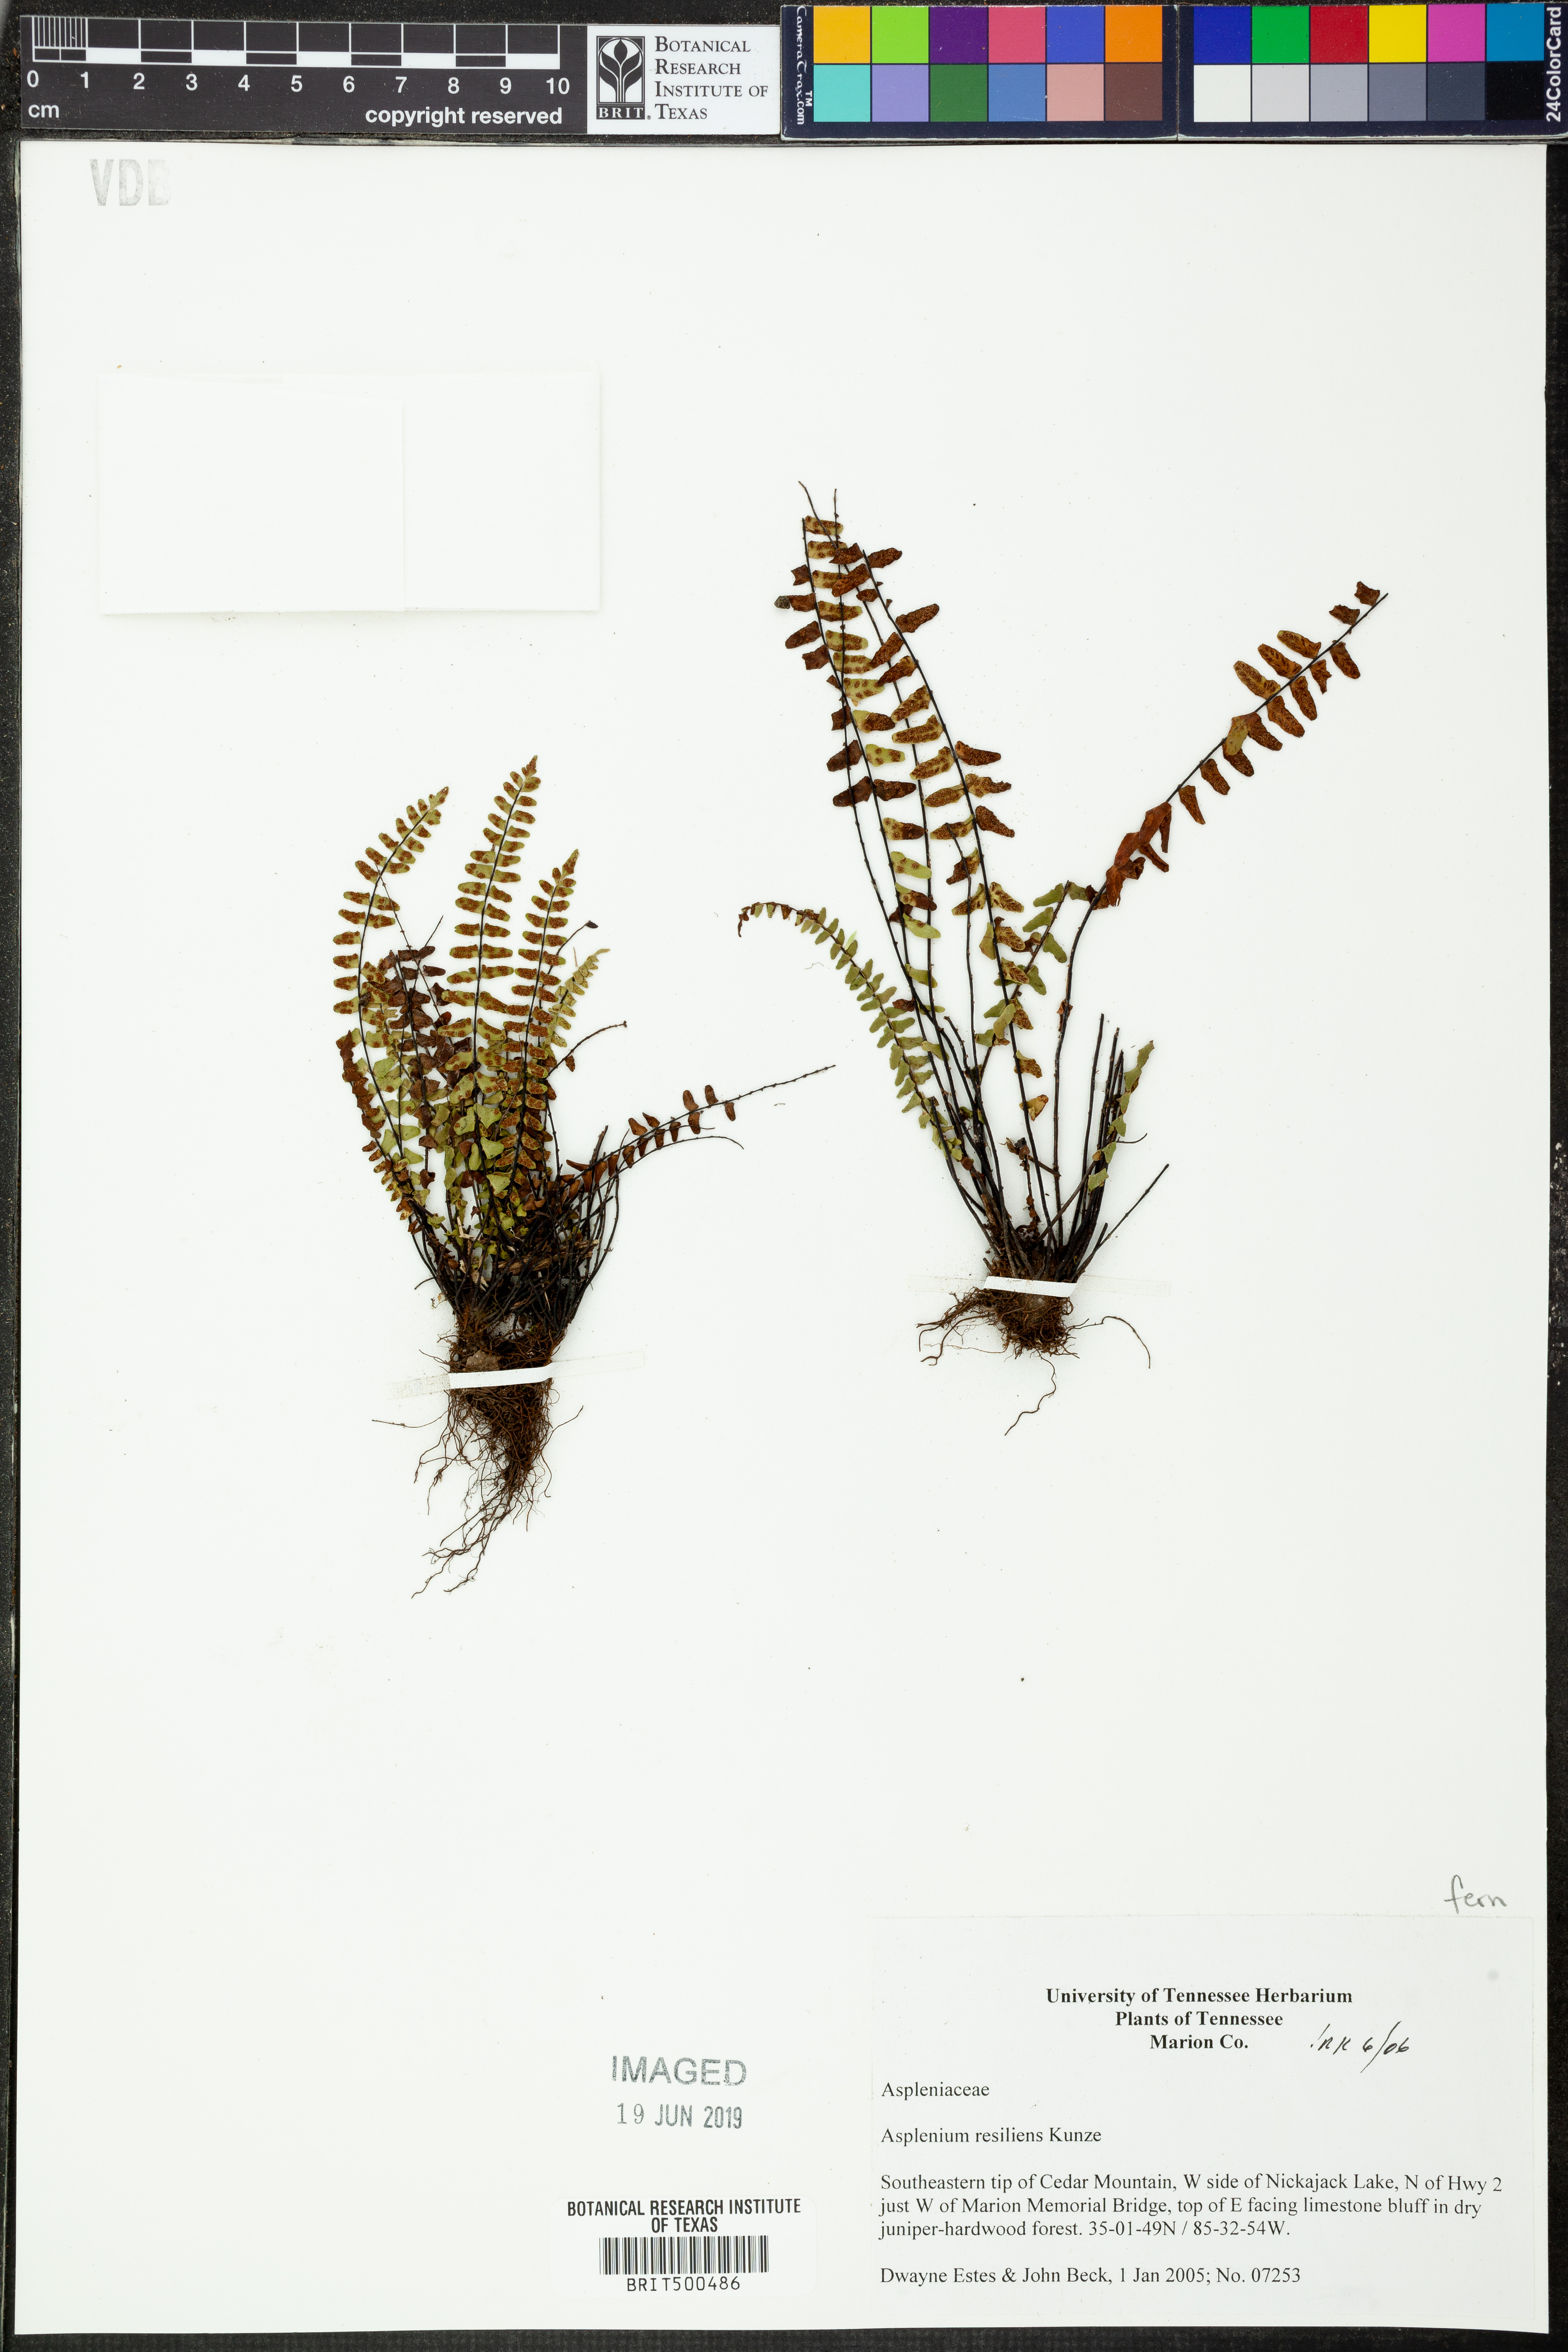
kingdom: Plantae
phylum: Tracheophyta
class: Polypodiopsida
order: Polypodiales
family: Aspleniaceae
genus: Asplenium
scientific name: Asplenium resiliens
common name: Blackstem spleenwort
